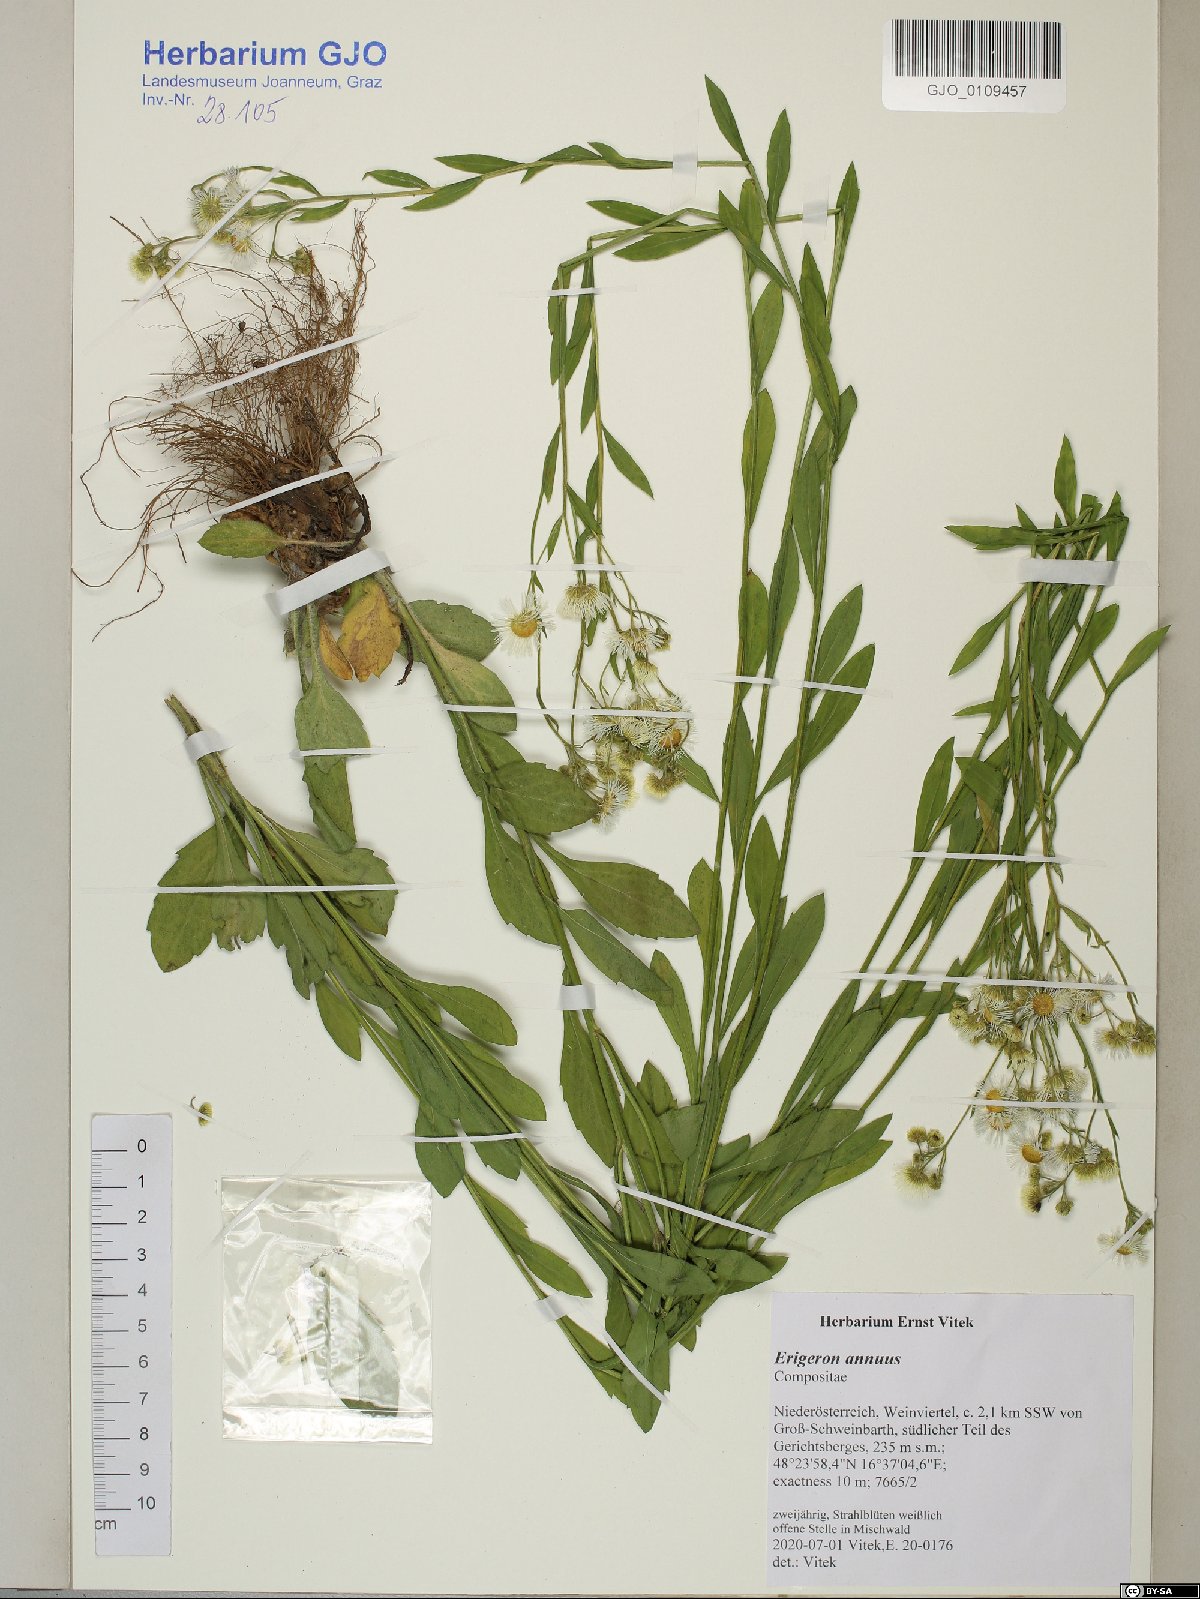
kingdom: Plantae
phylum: Tracheophyta
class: Magnoliopsida
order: Asterales
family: Asteraceae
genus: Erigeron
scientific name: Erigeron annuus
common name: Tall fleabane
